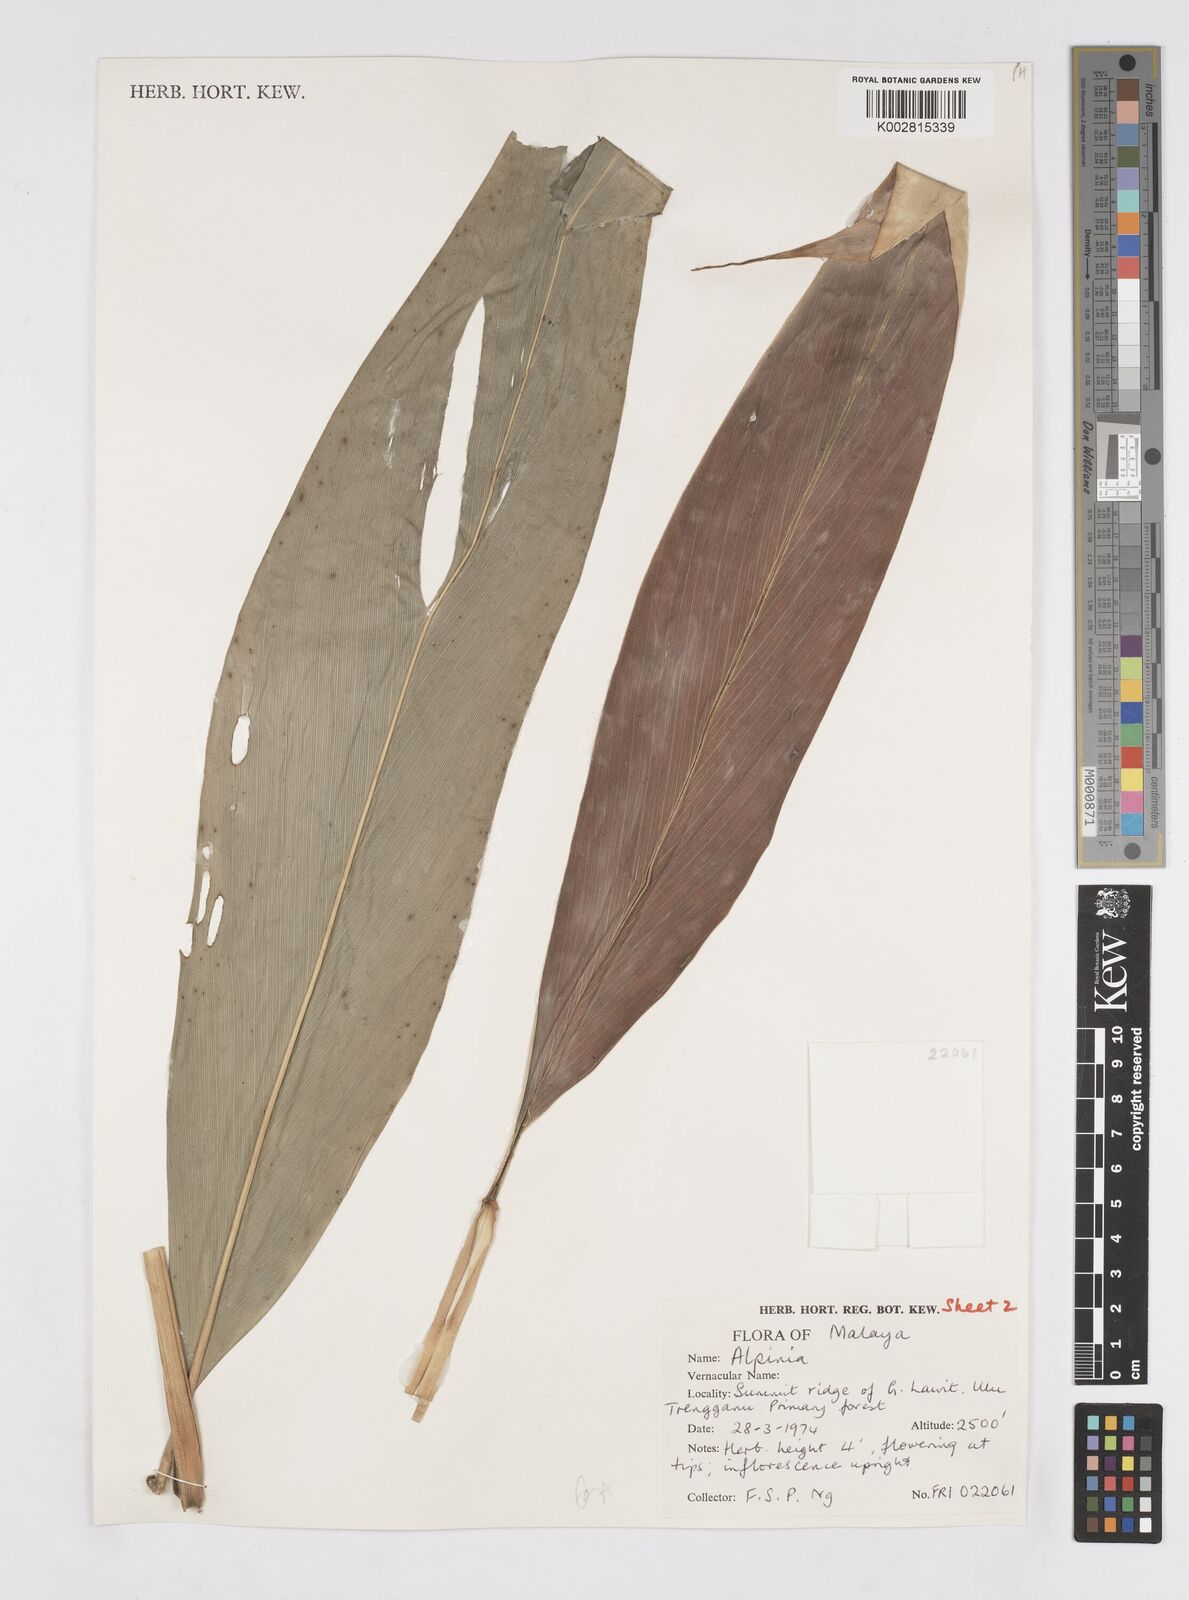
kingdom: Plantae
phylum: Tracheophyta
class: Liliopsida
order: Zingiberales
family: Zingiberaceae
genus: Alpinia
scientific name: Alpinia
